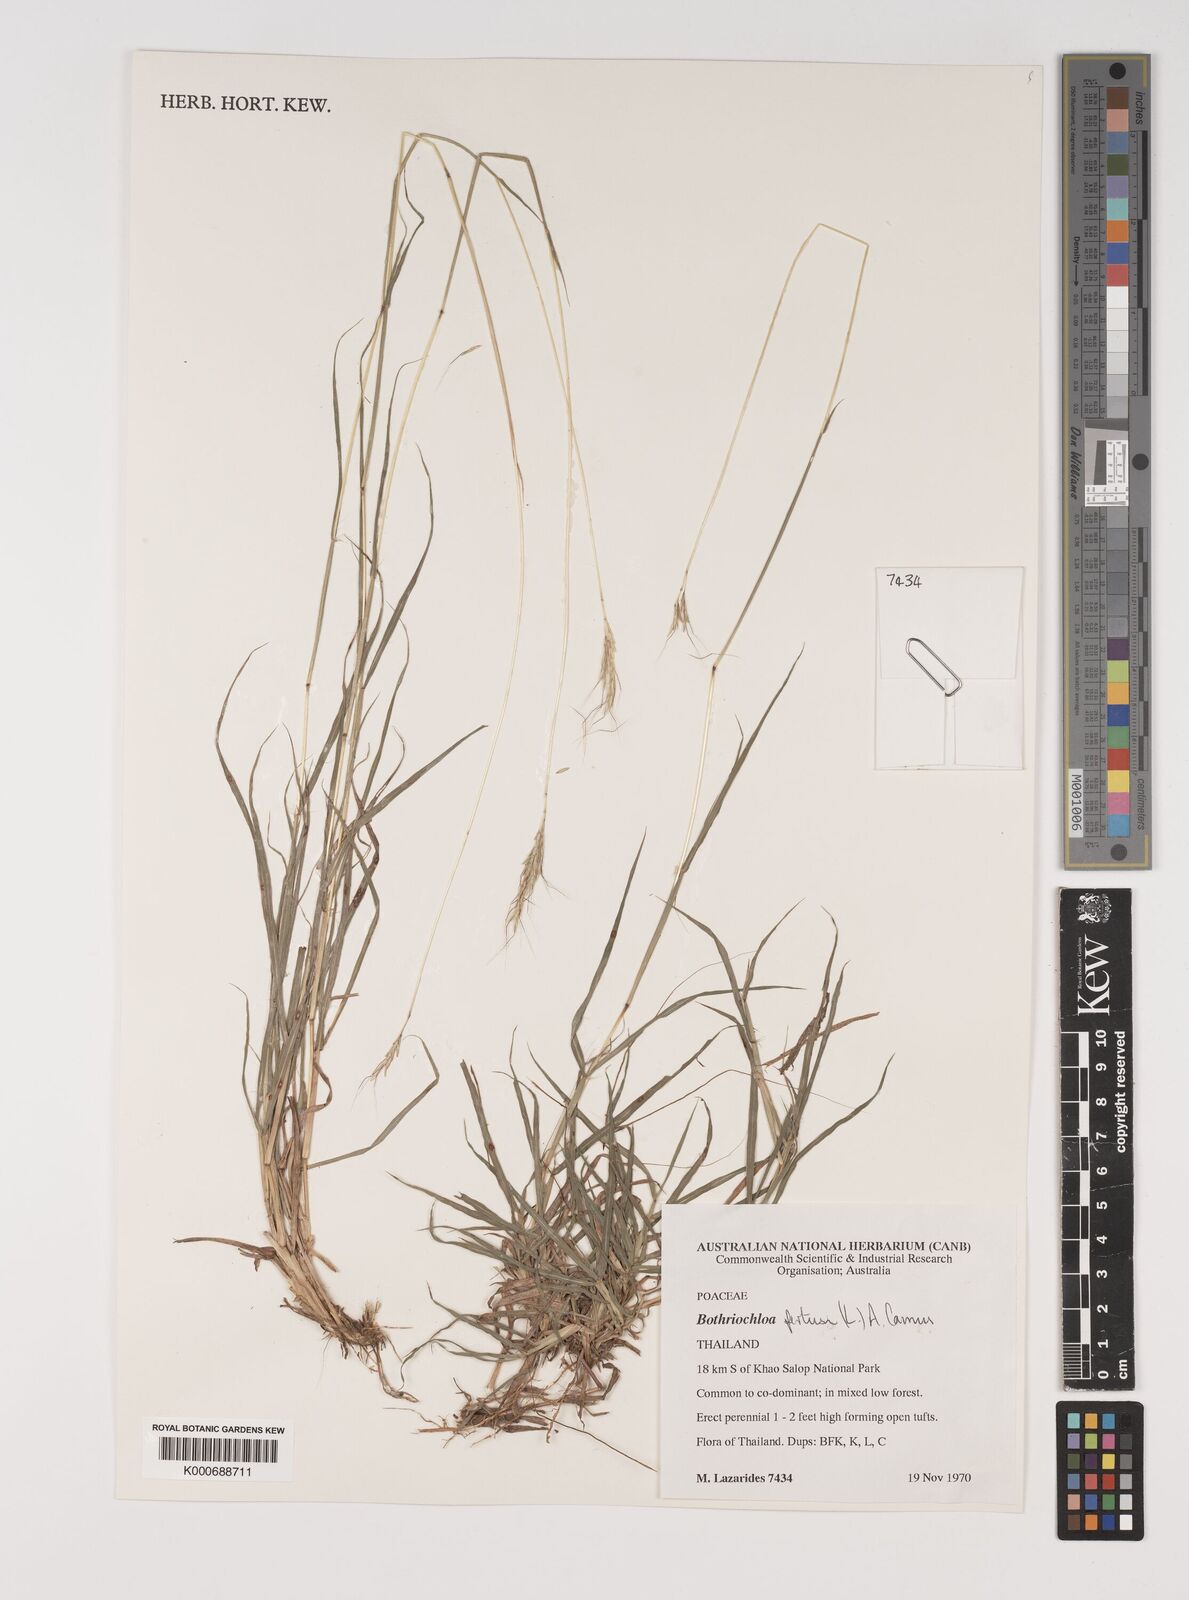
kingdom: Plantae
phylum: Tracheophyta
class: Liliopsida
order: Poales
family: Poaceae
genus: Bothriochloa
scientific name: Bothriochloa pertusa
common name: Pitted beardgrass
